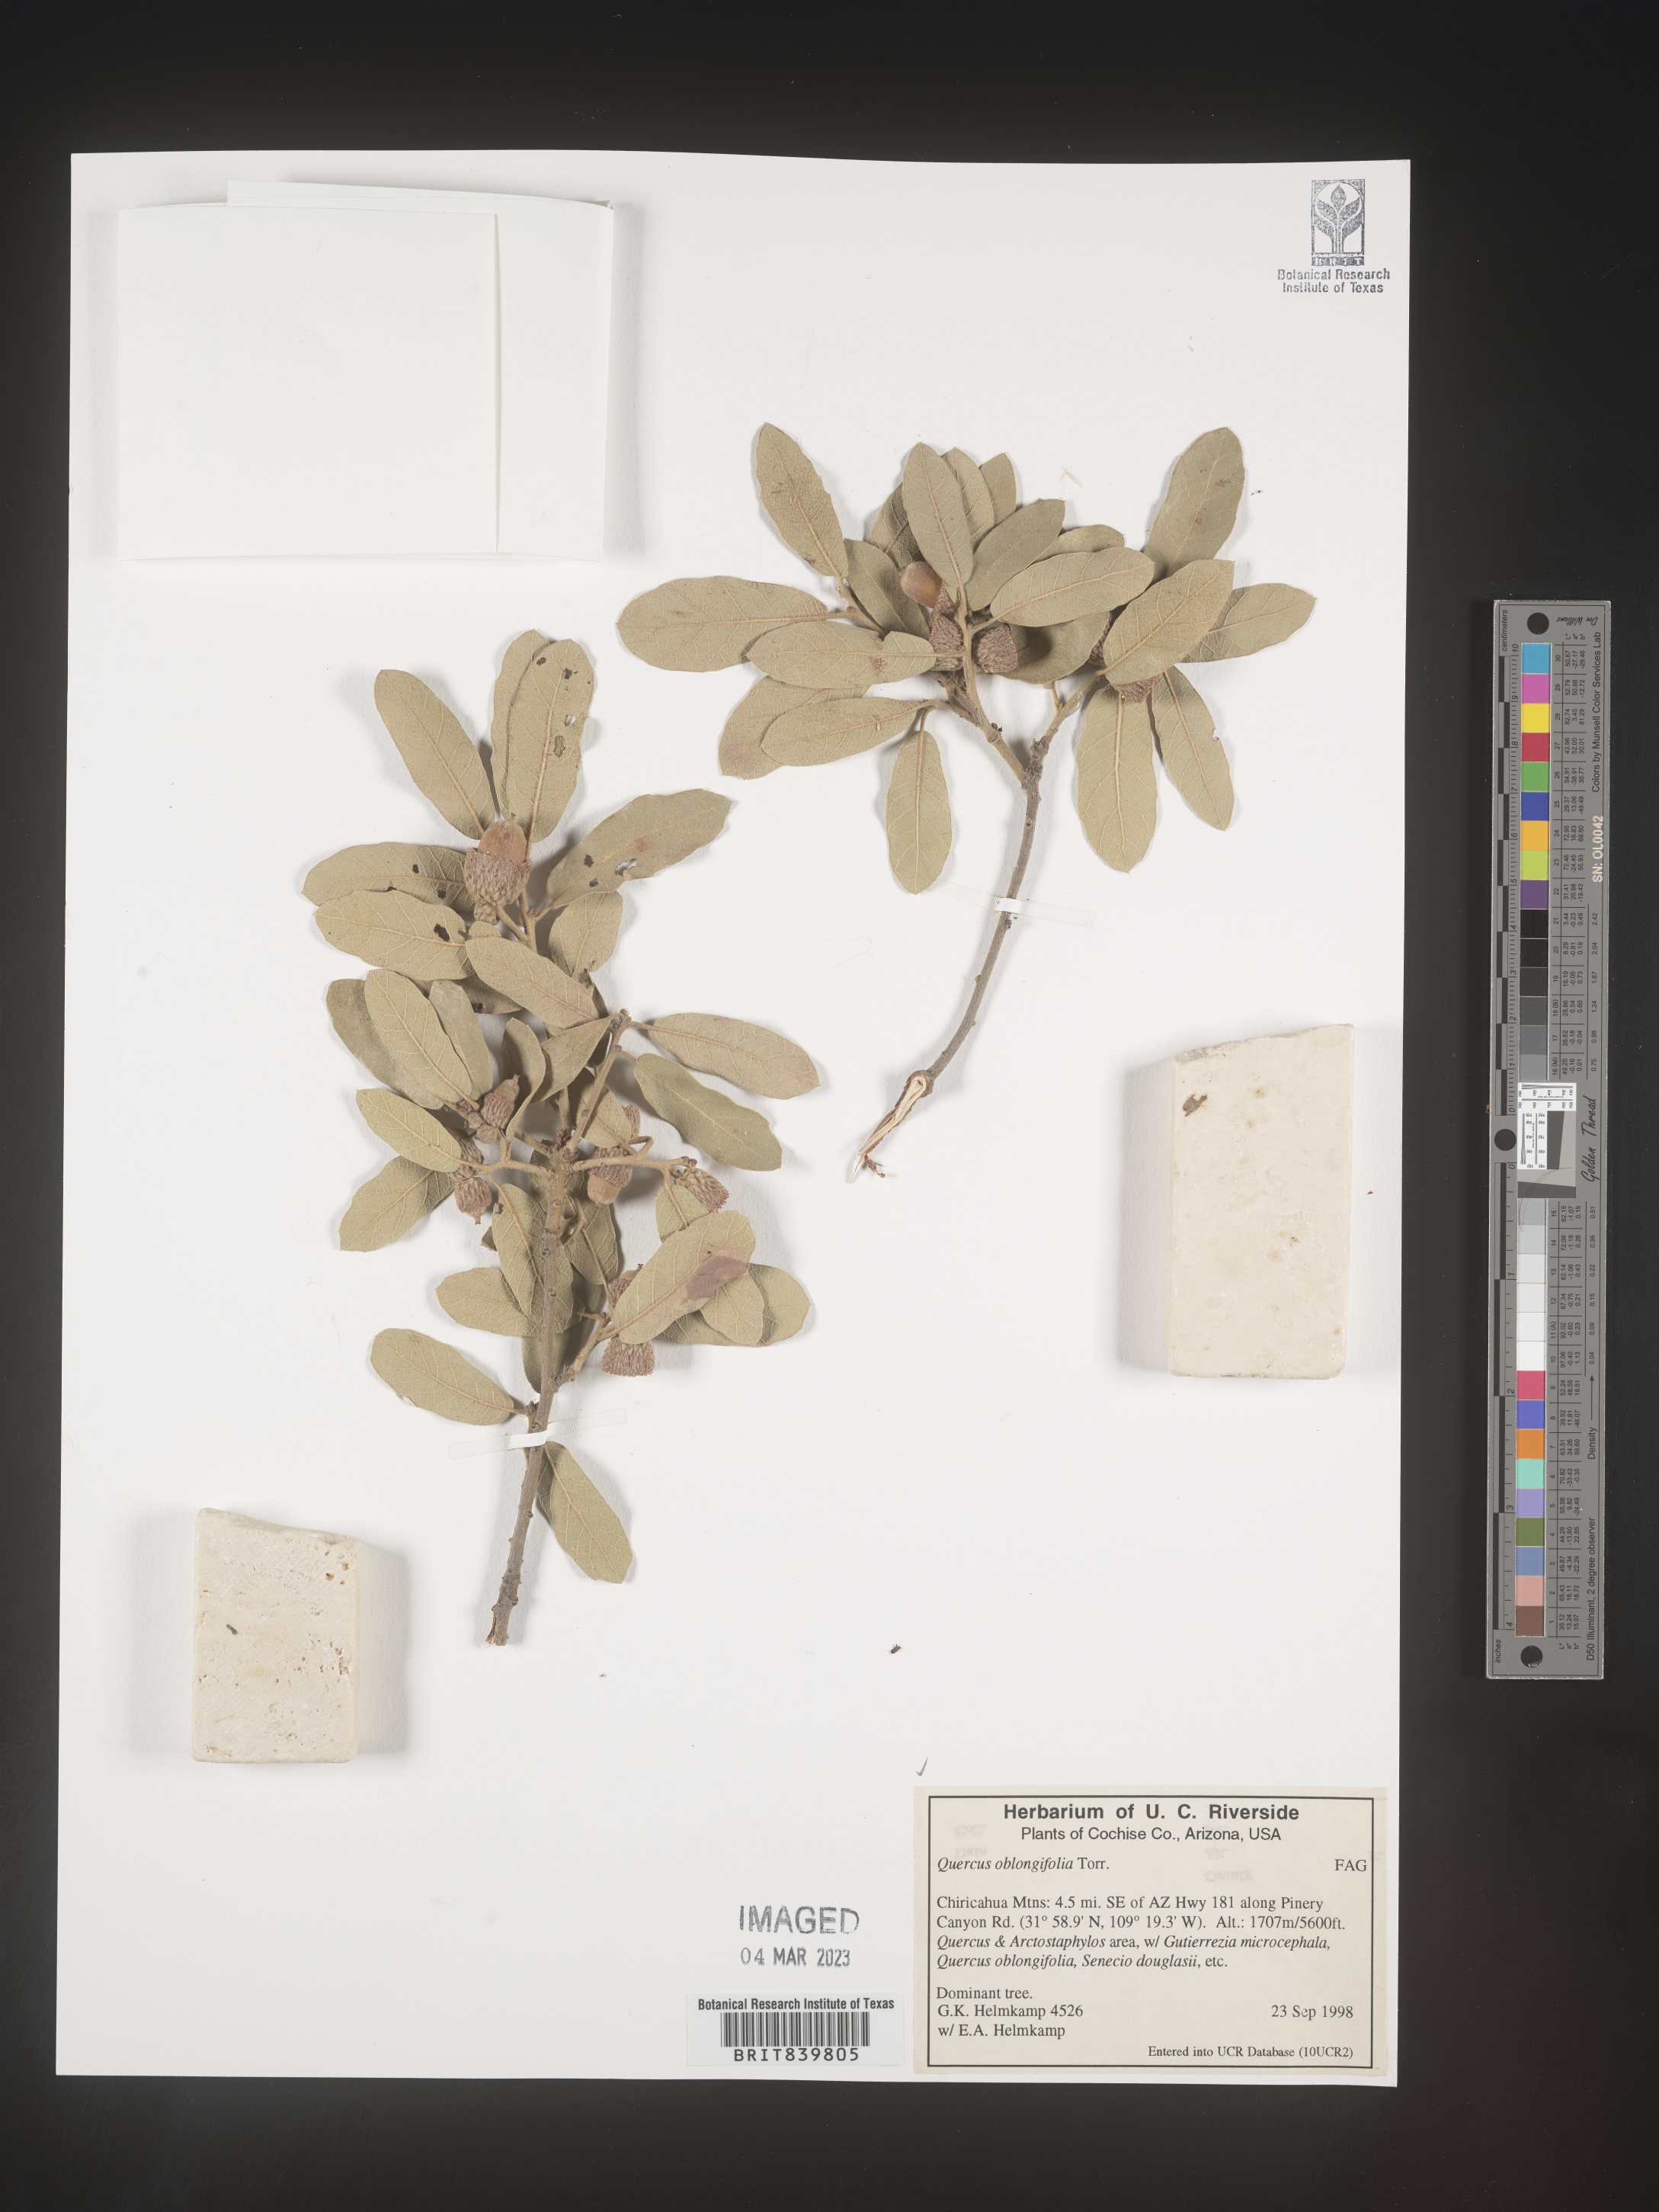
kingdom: Plantae
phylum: Tracheophyta
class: Magnoliopsida
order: Fagales
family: Fagaceae
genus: Quercus
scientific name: Quercus oblongifolia
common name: Mexican blue oak
